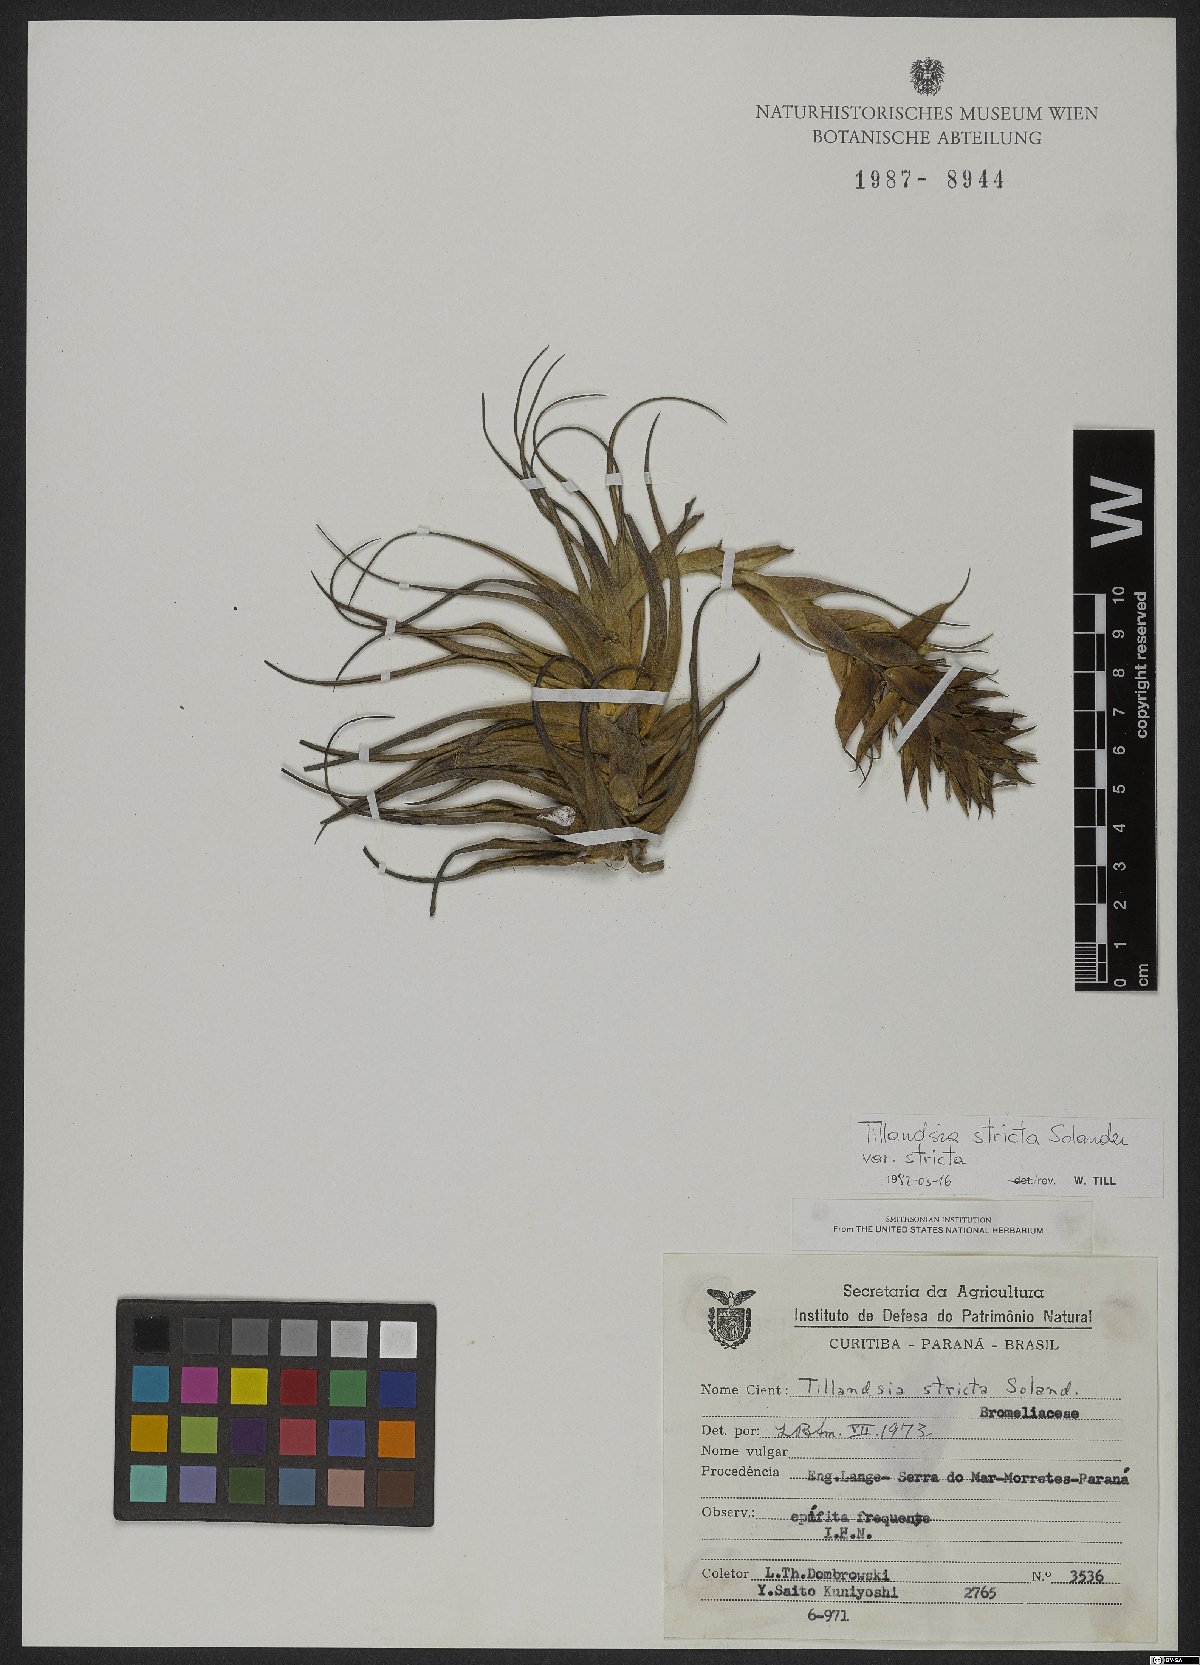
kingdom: Plantae
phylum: Tracheophyta
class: Liliopsida
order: Poales
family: Bromeliaceae
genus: Tillandsia
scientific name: Tillandsia stricta
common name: Airplant
